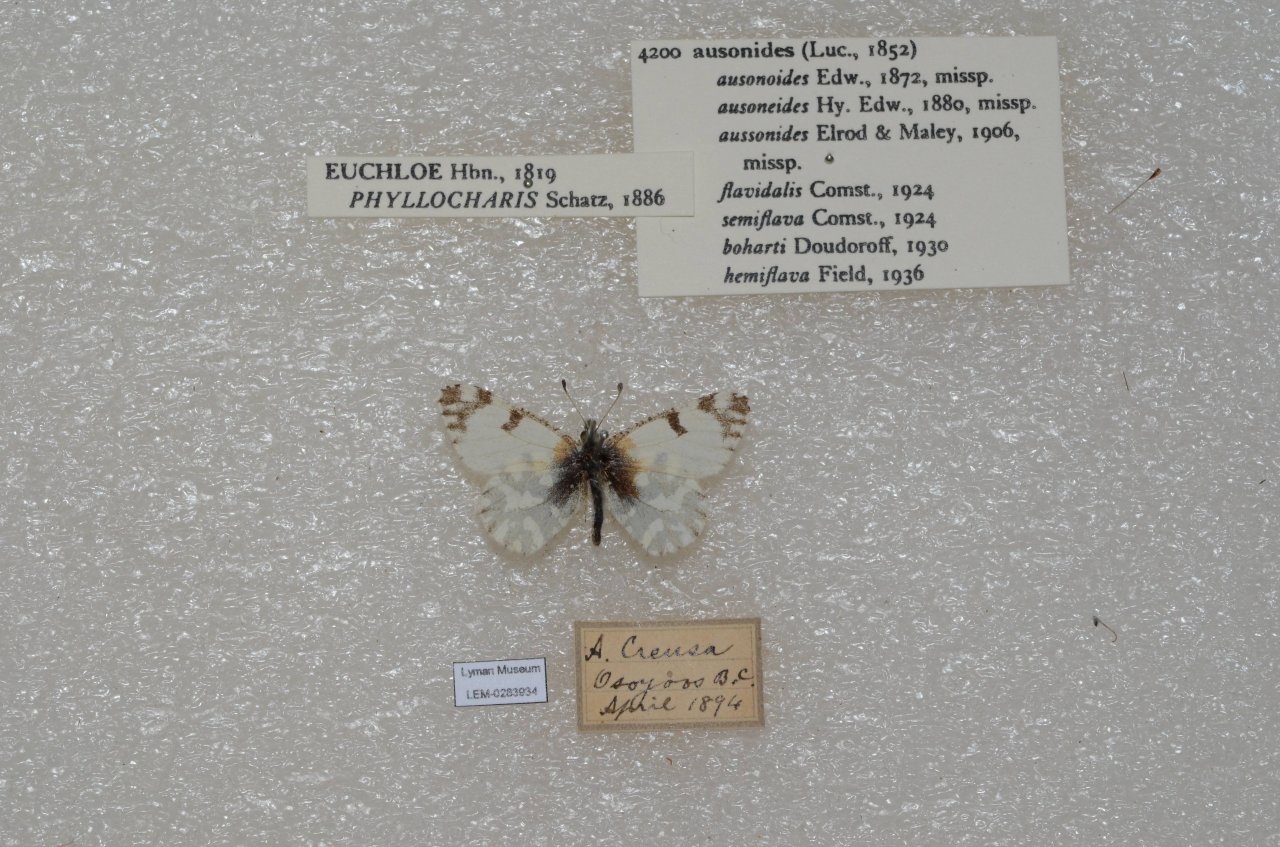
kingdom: Animalia
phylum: Arthropoda
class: Insecta
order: Lepidoptera
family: Pieridae
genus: Euchloe
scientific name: Euchloe ausonides
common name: Large Marble
